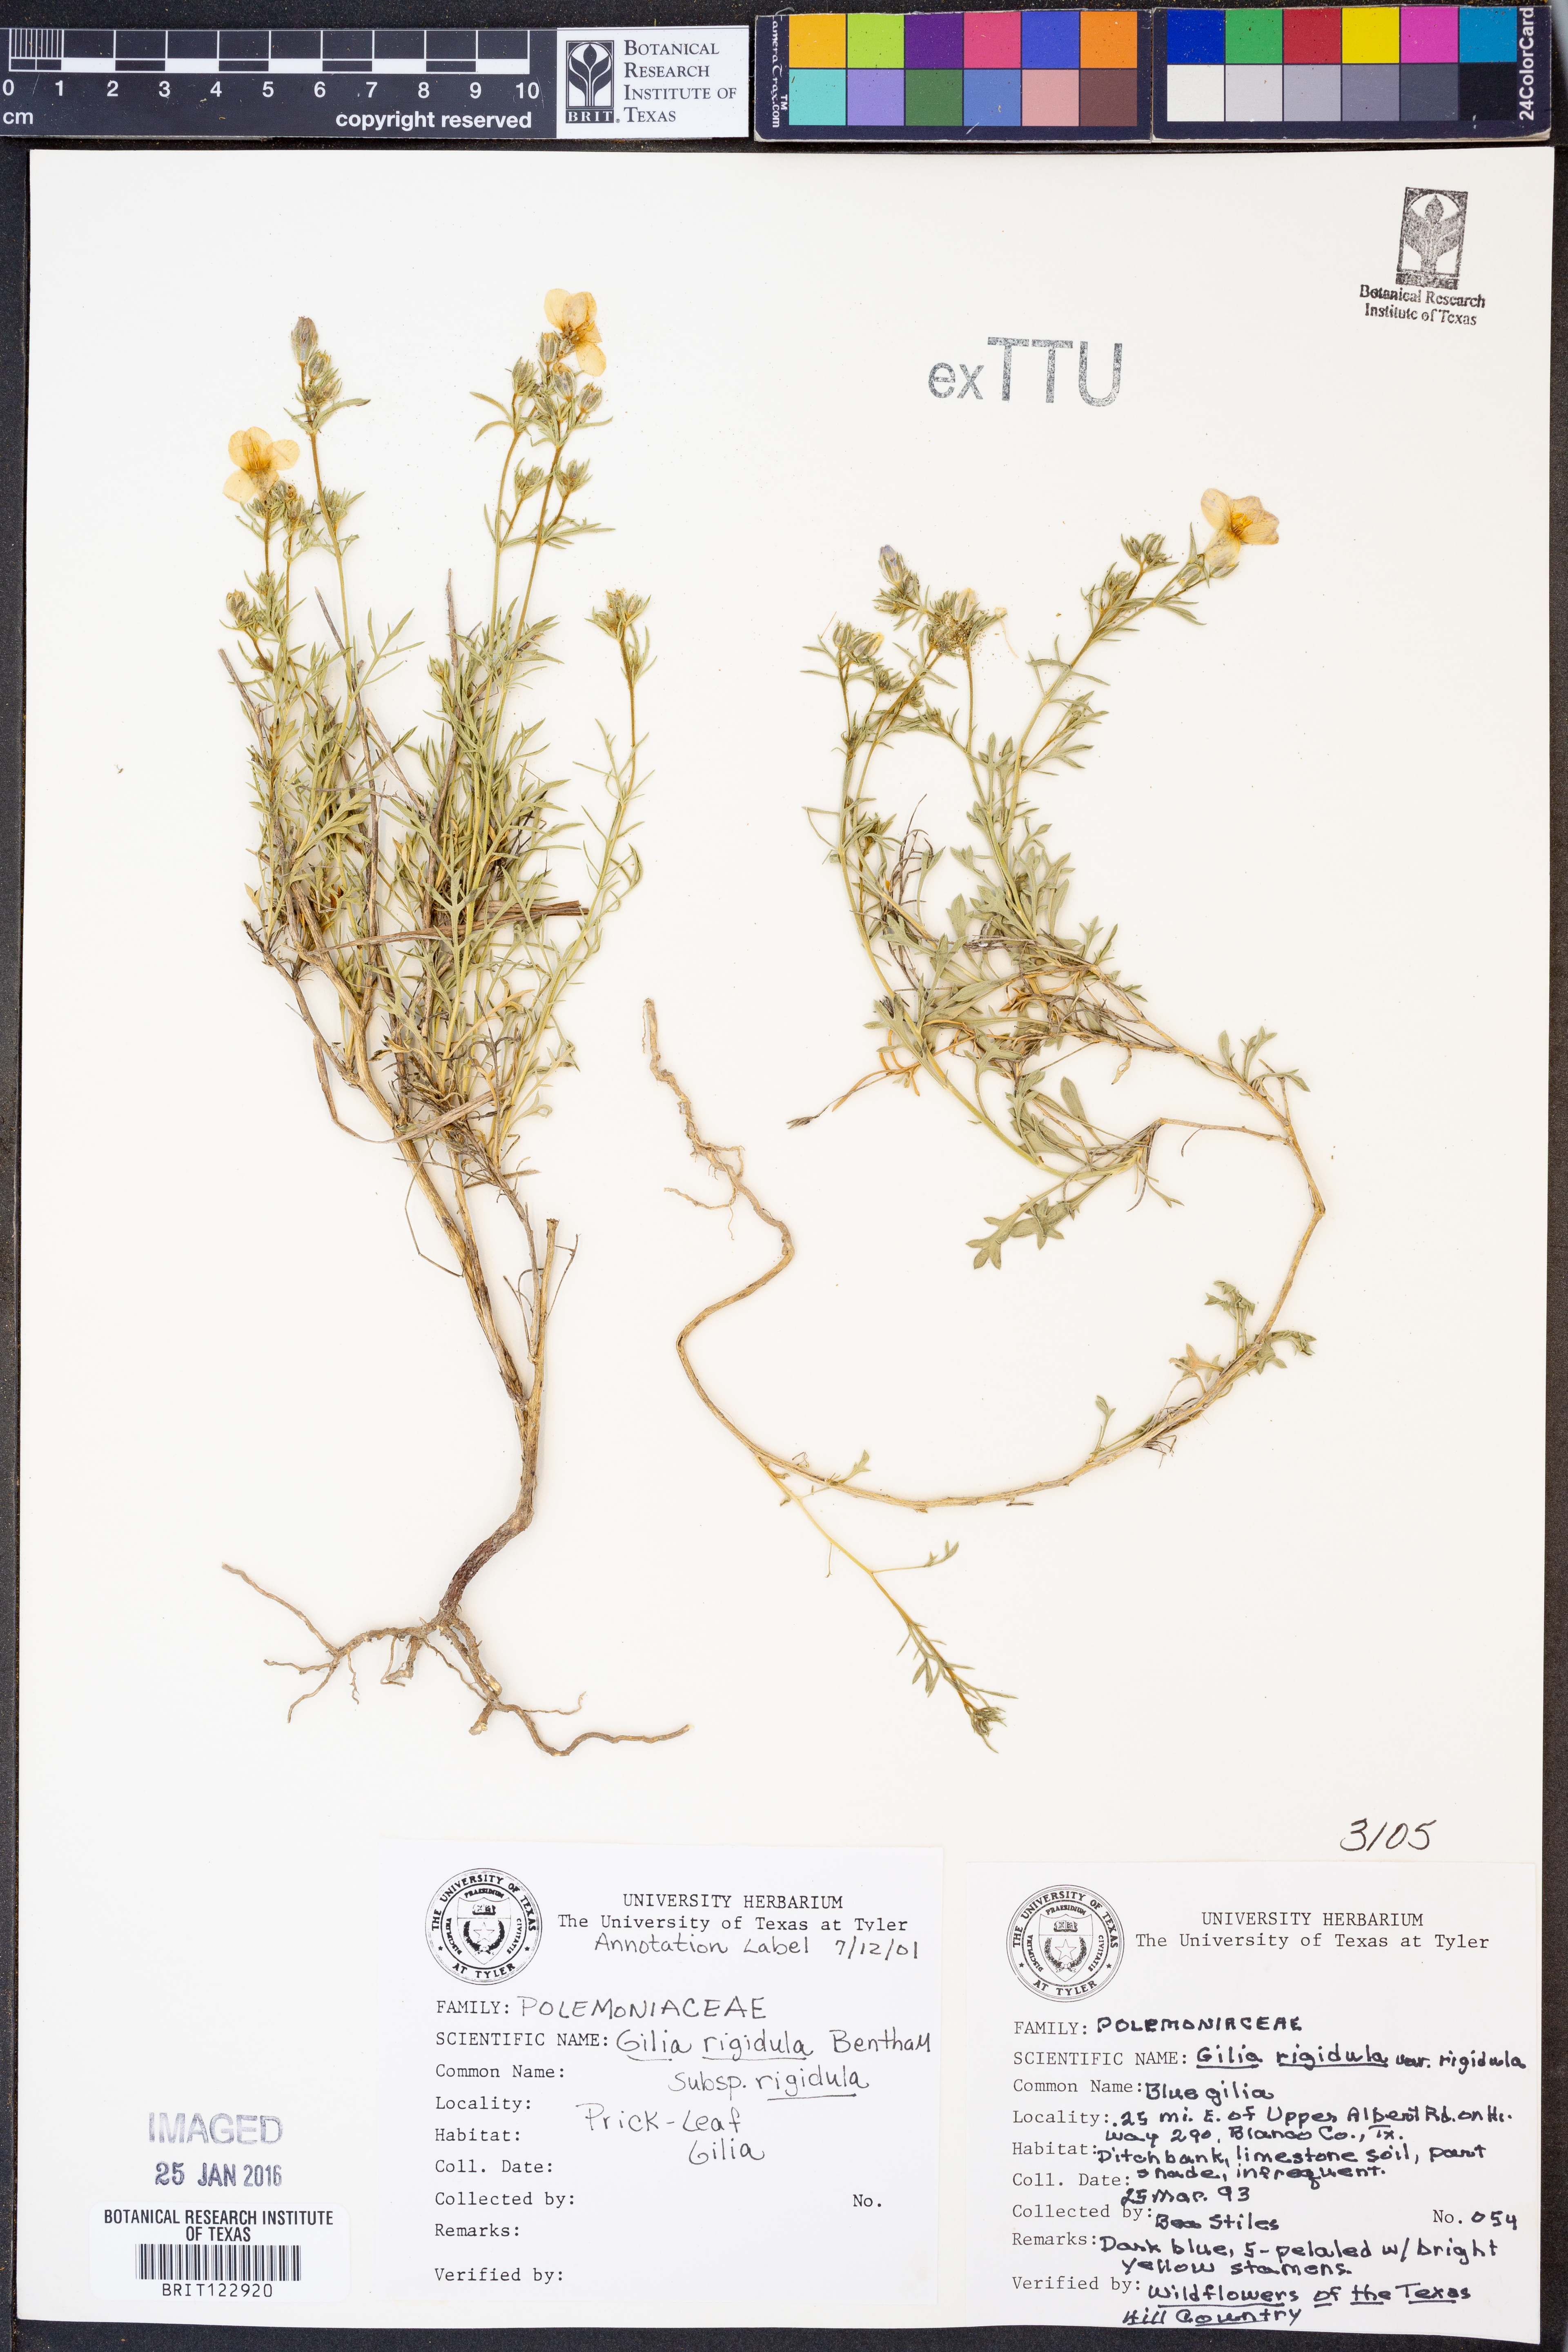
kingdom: Plantae
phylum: Tracheophyta
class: Magnoliopsida
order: Ericales
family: Polemoniaceae
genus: Giliastrum
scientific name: Giliastrum rigidulum
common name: Bluebowls
